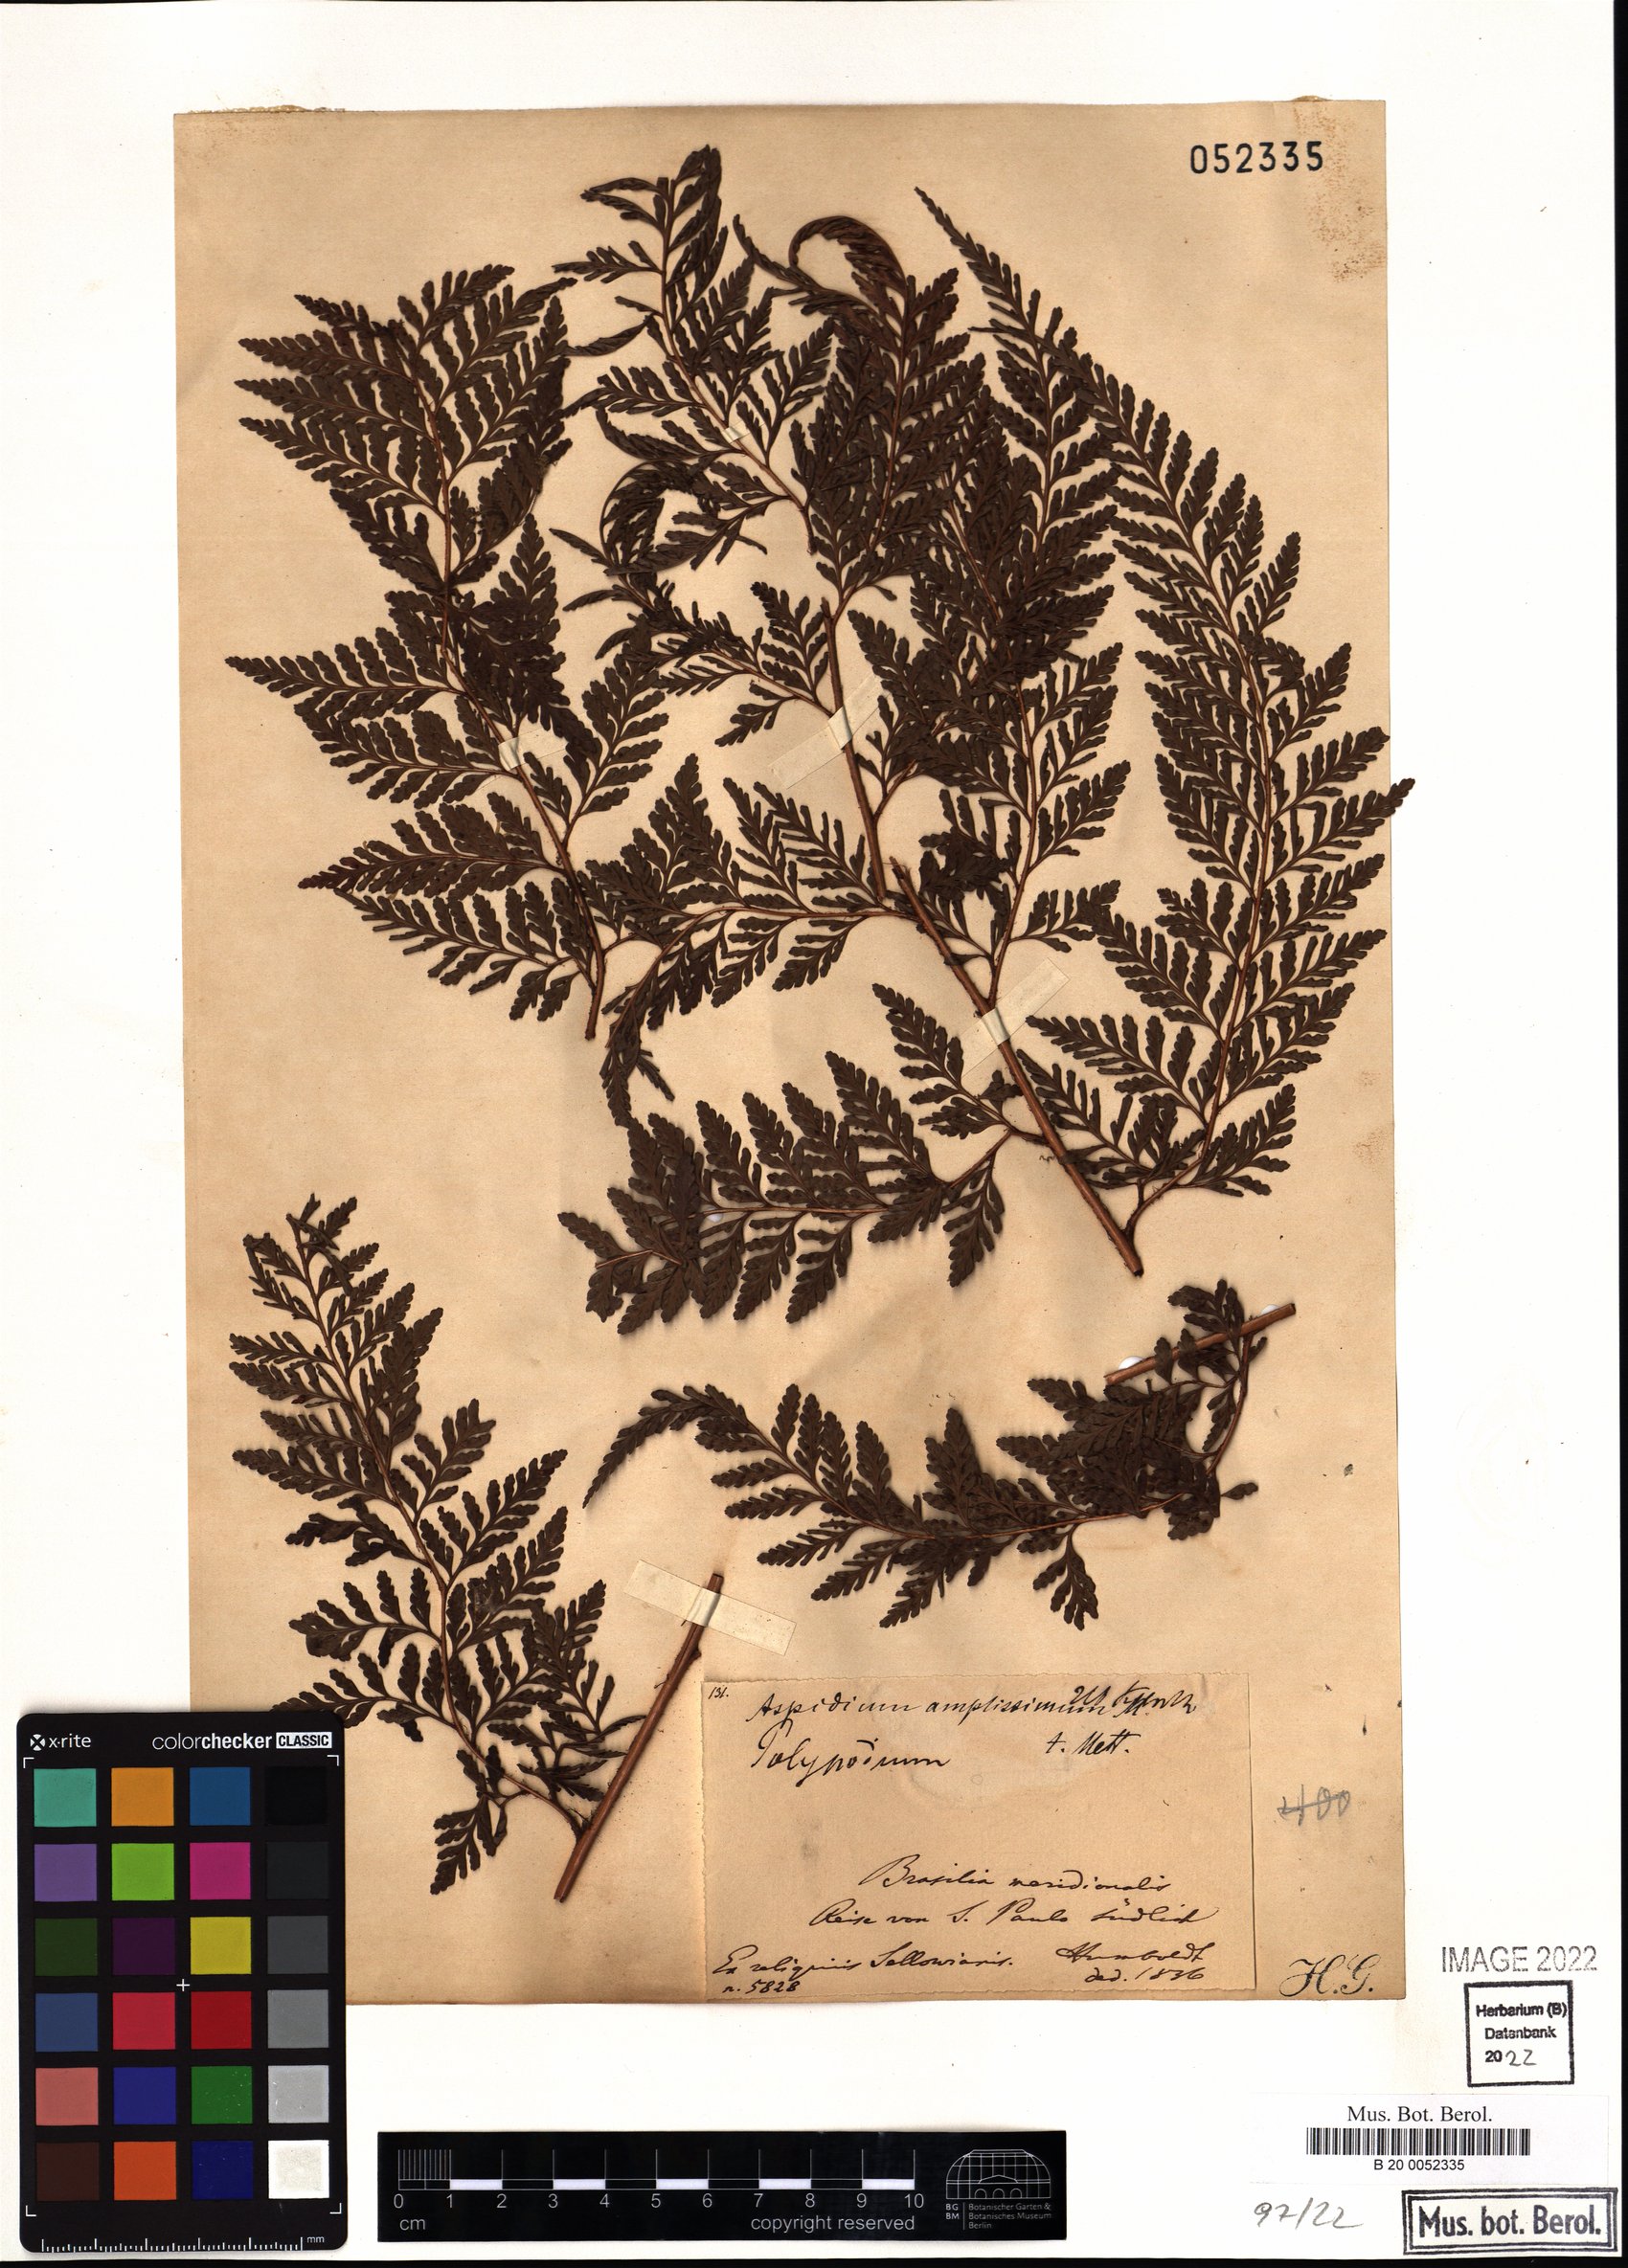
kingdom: Plantae
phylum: Tracheophyta
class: Polypodiopsida
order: Polypodiales
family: Dryopteridaceae
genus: Lastreopsis
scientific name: Lastreopsis amplissima
